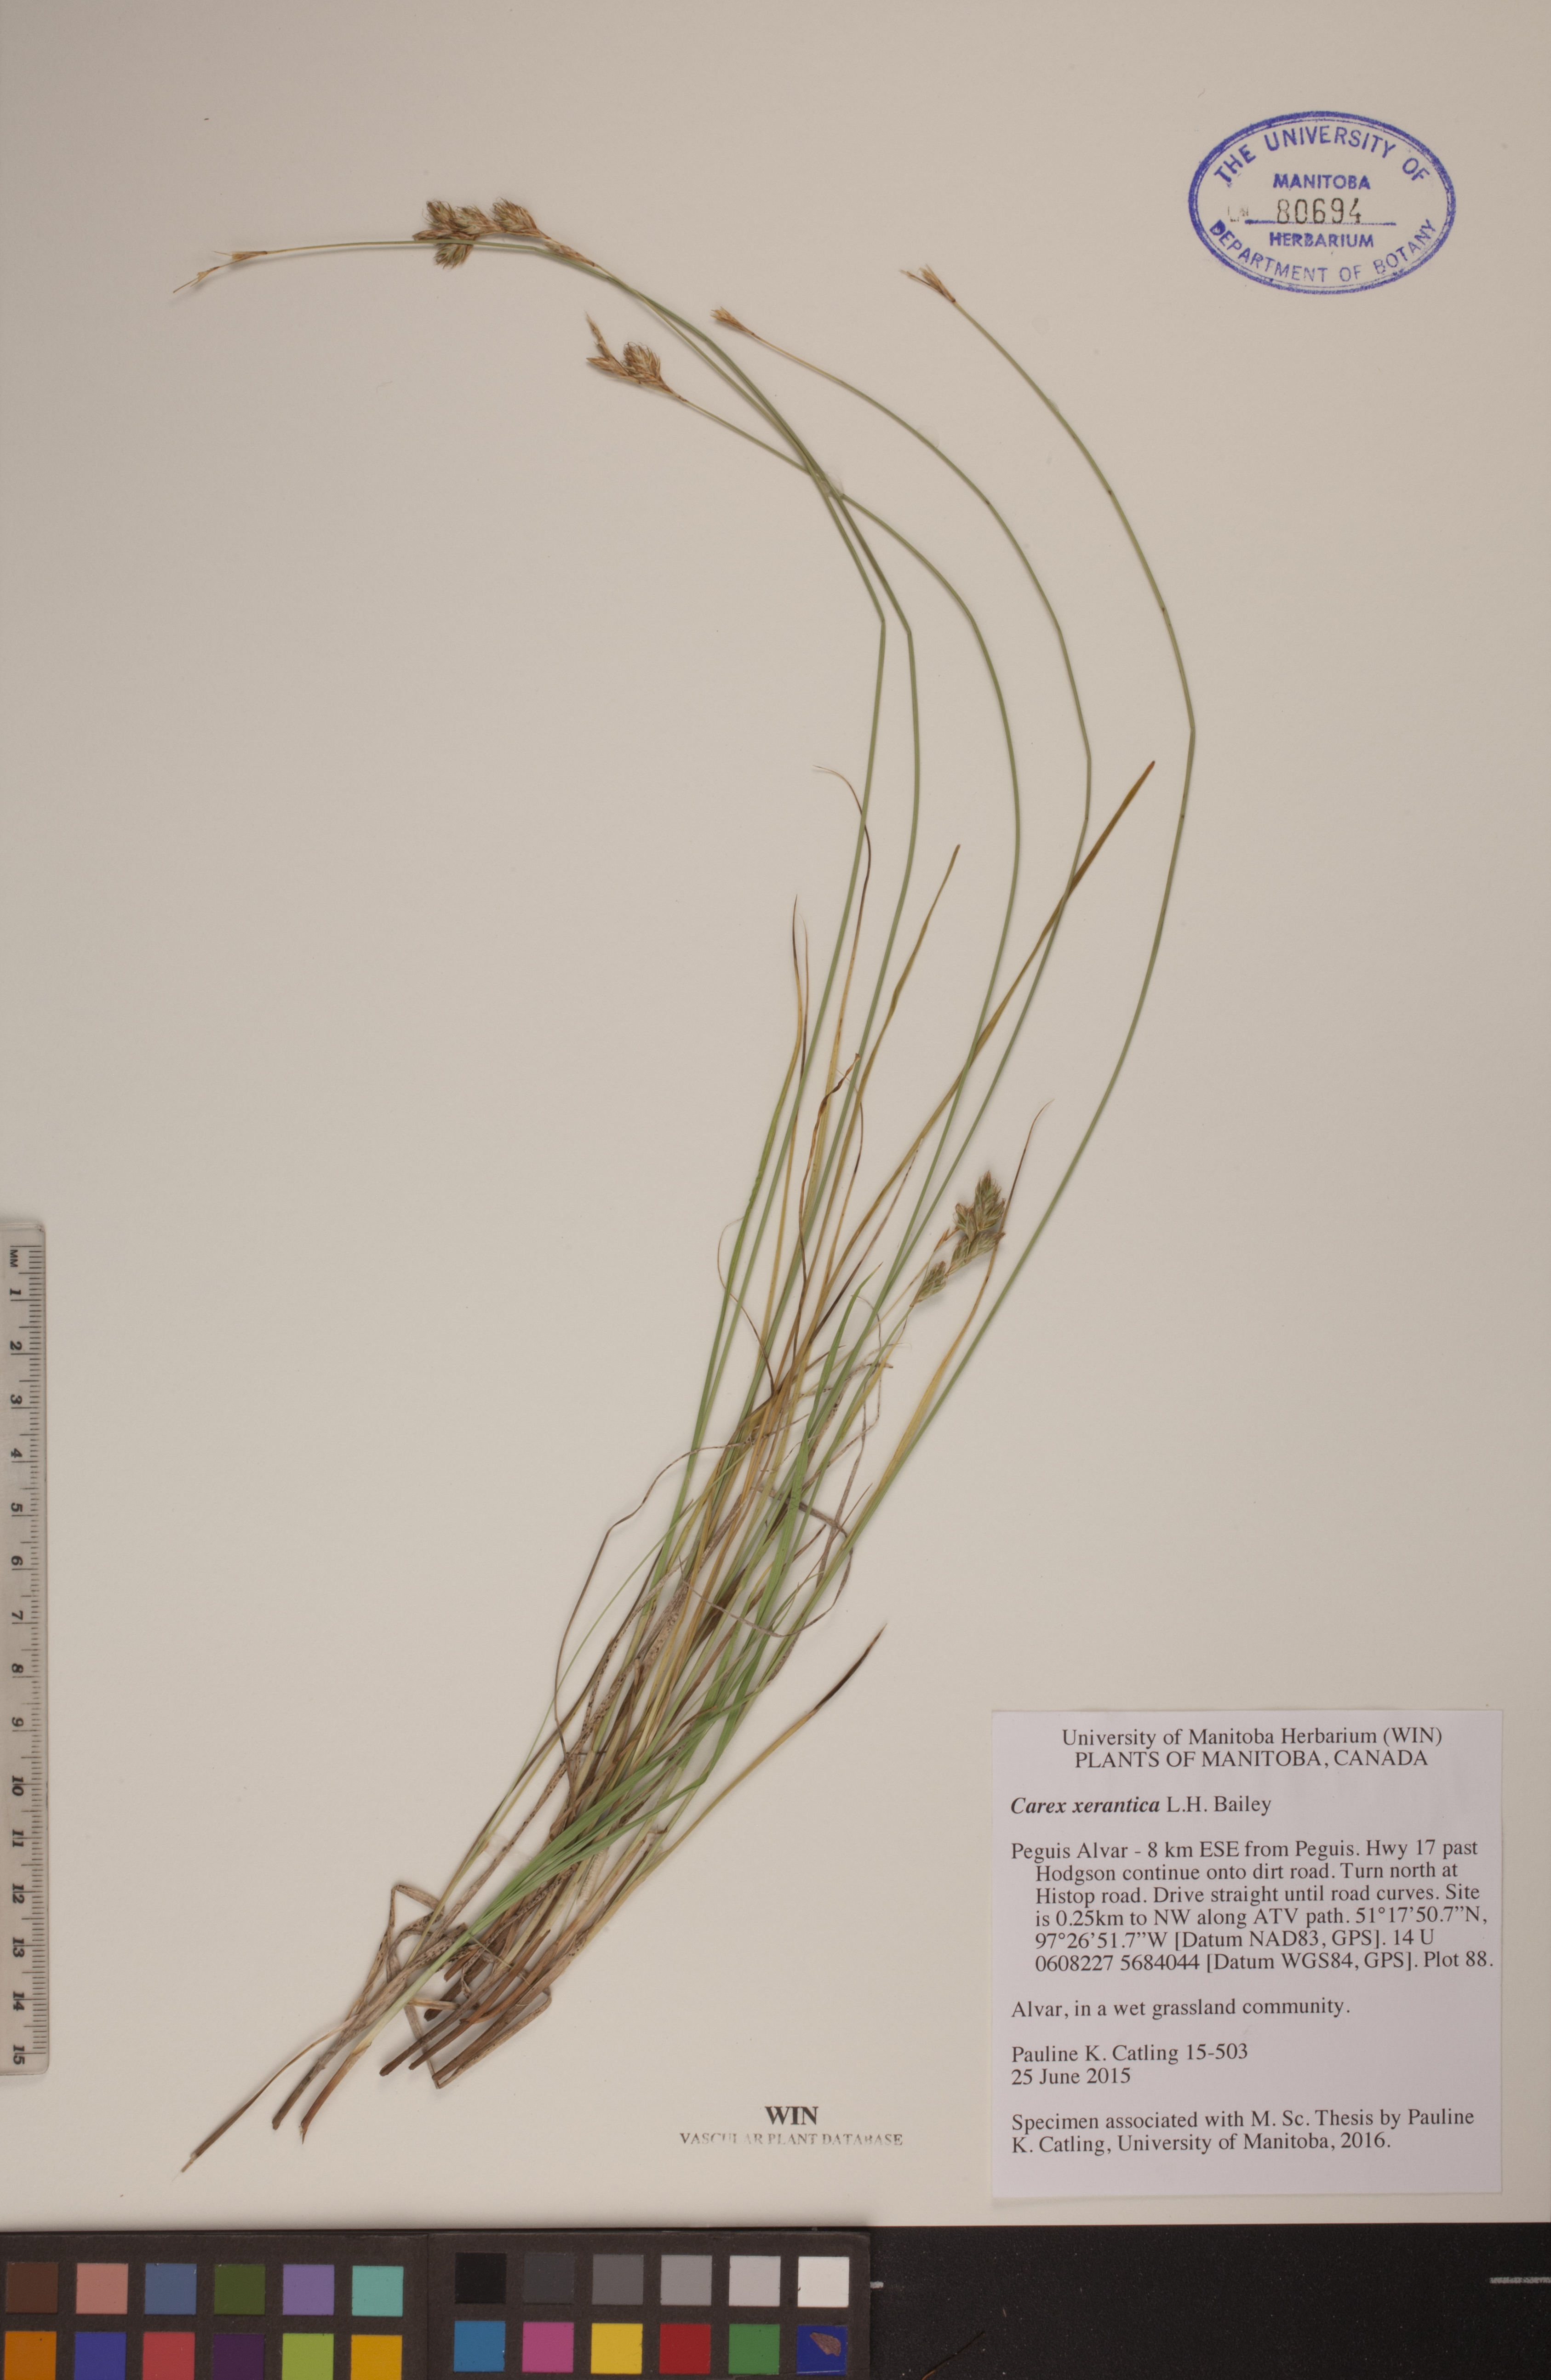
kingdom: Plantae
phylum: Tracheophyta
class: Liliopsida
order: Poales
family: Cyperaceae
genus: Carex
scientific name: Carex xerantica
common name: Dryland sedge
